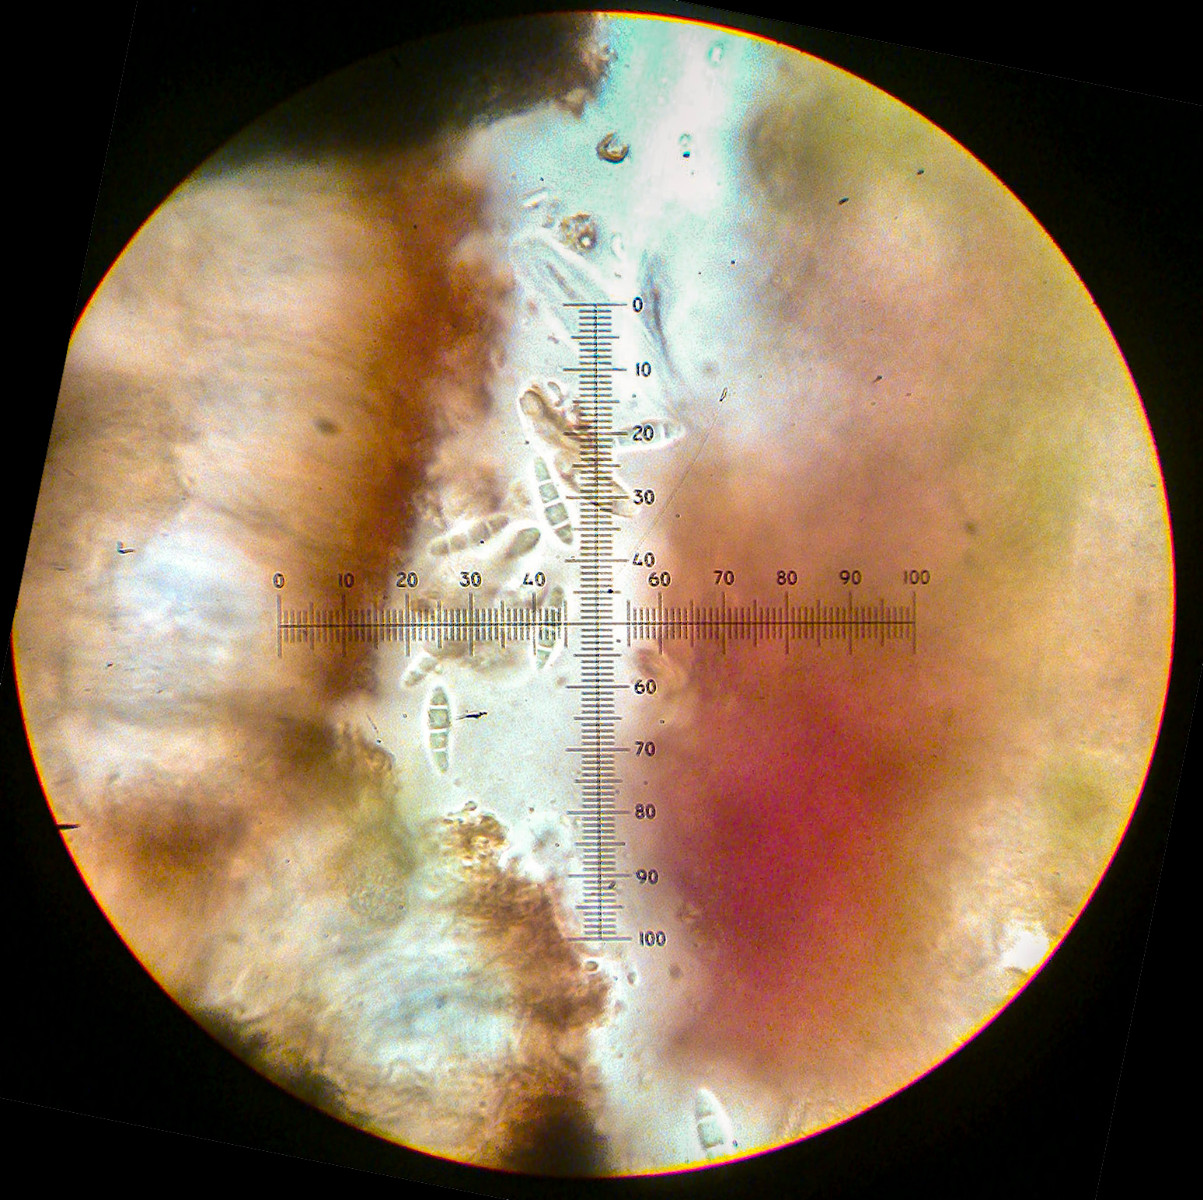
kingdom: Fungi
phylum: Ascomycota
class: Arthoniomycetes
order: Arthoniales
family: Lecanographaceae
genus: Alyxoria
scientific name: Alyxoria ochrocheila
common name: rødpudret bogstavlav
